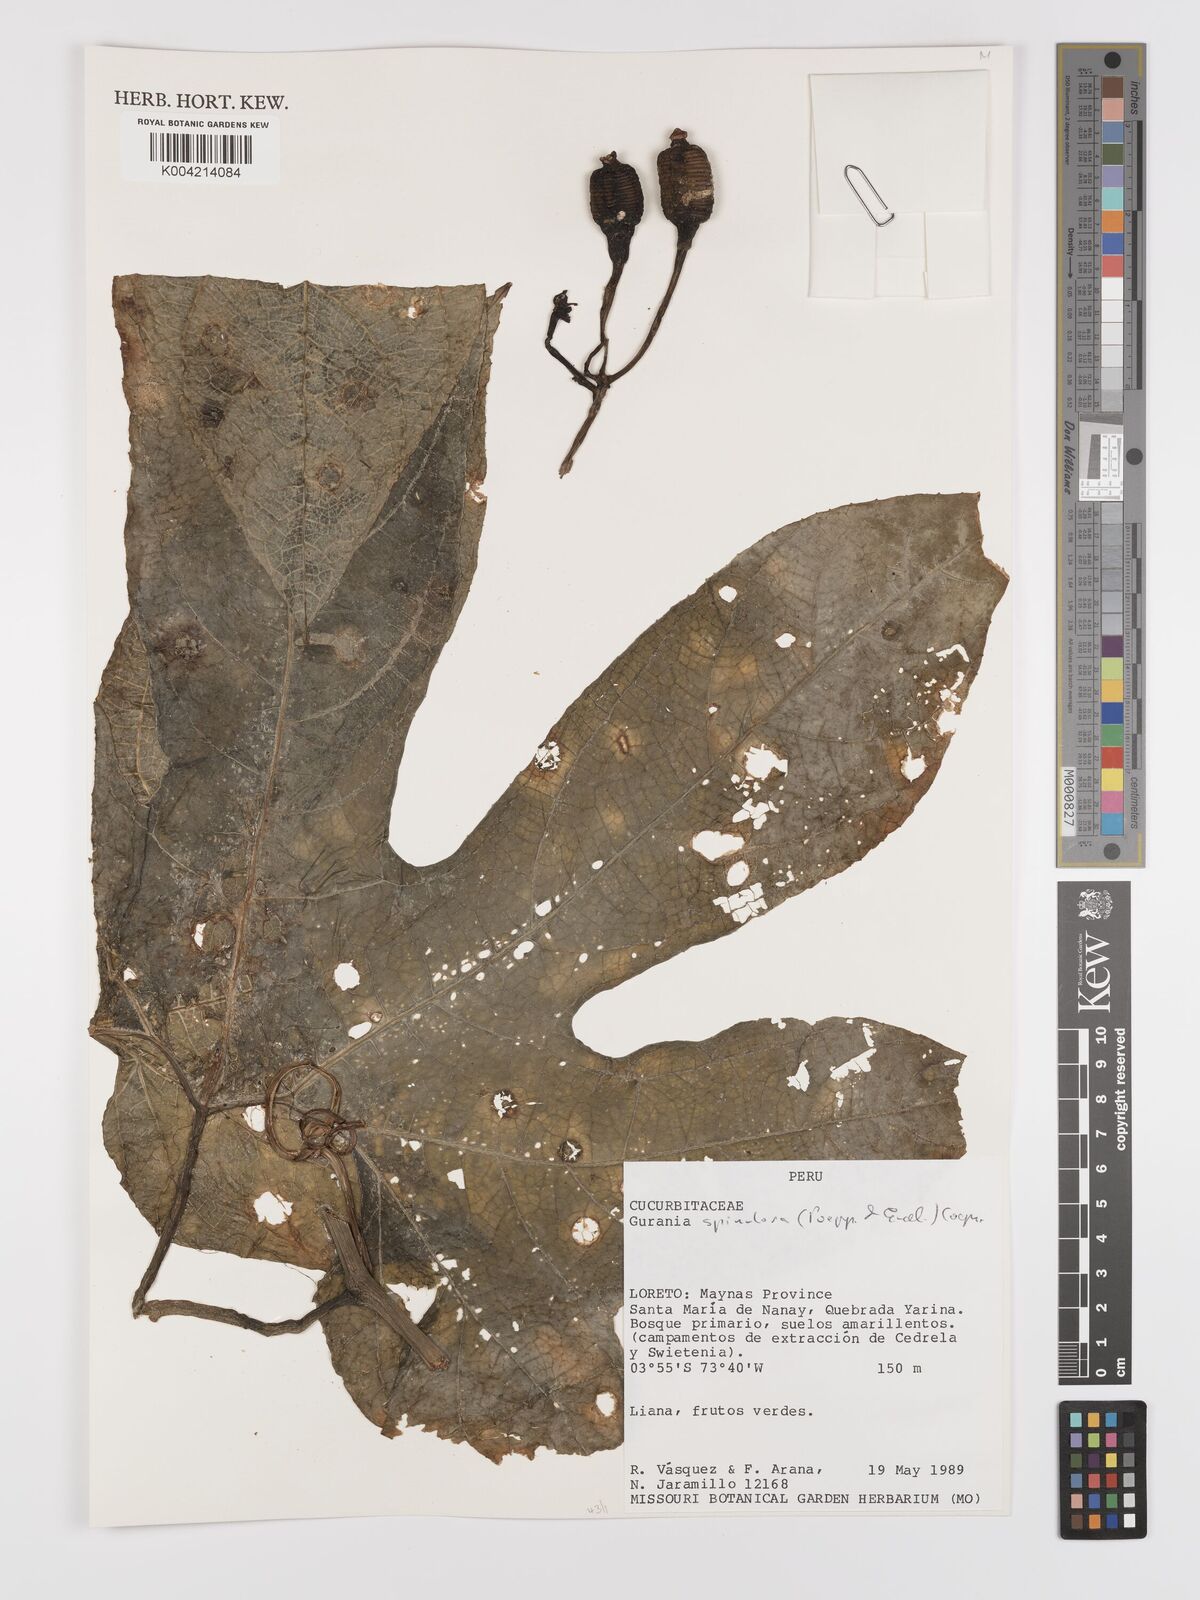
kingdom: Plantae
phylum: Tracheophyta
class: Magnoliopsida
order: Cucurbitales
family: Cucurbitaceae
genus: Gurania
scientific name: Gurania lobata
